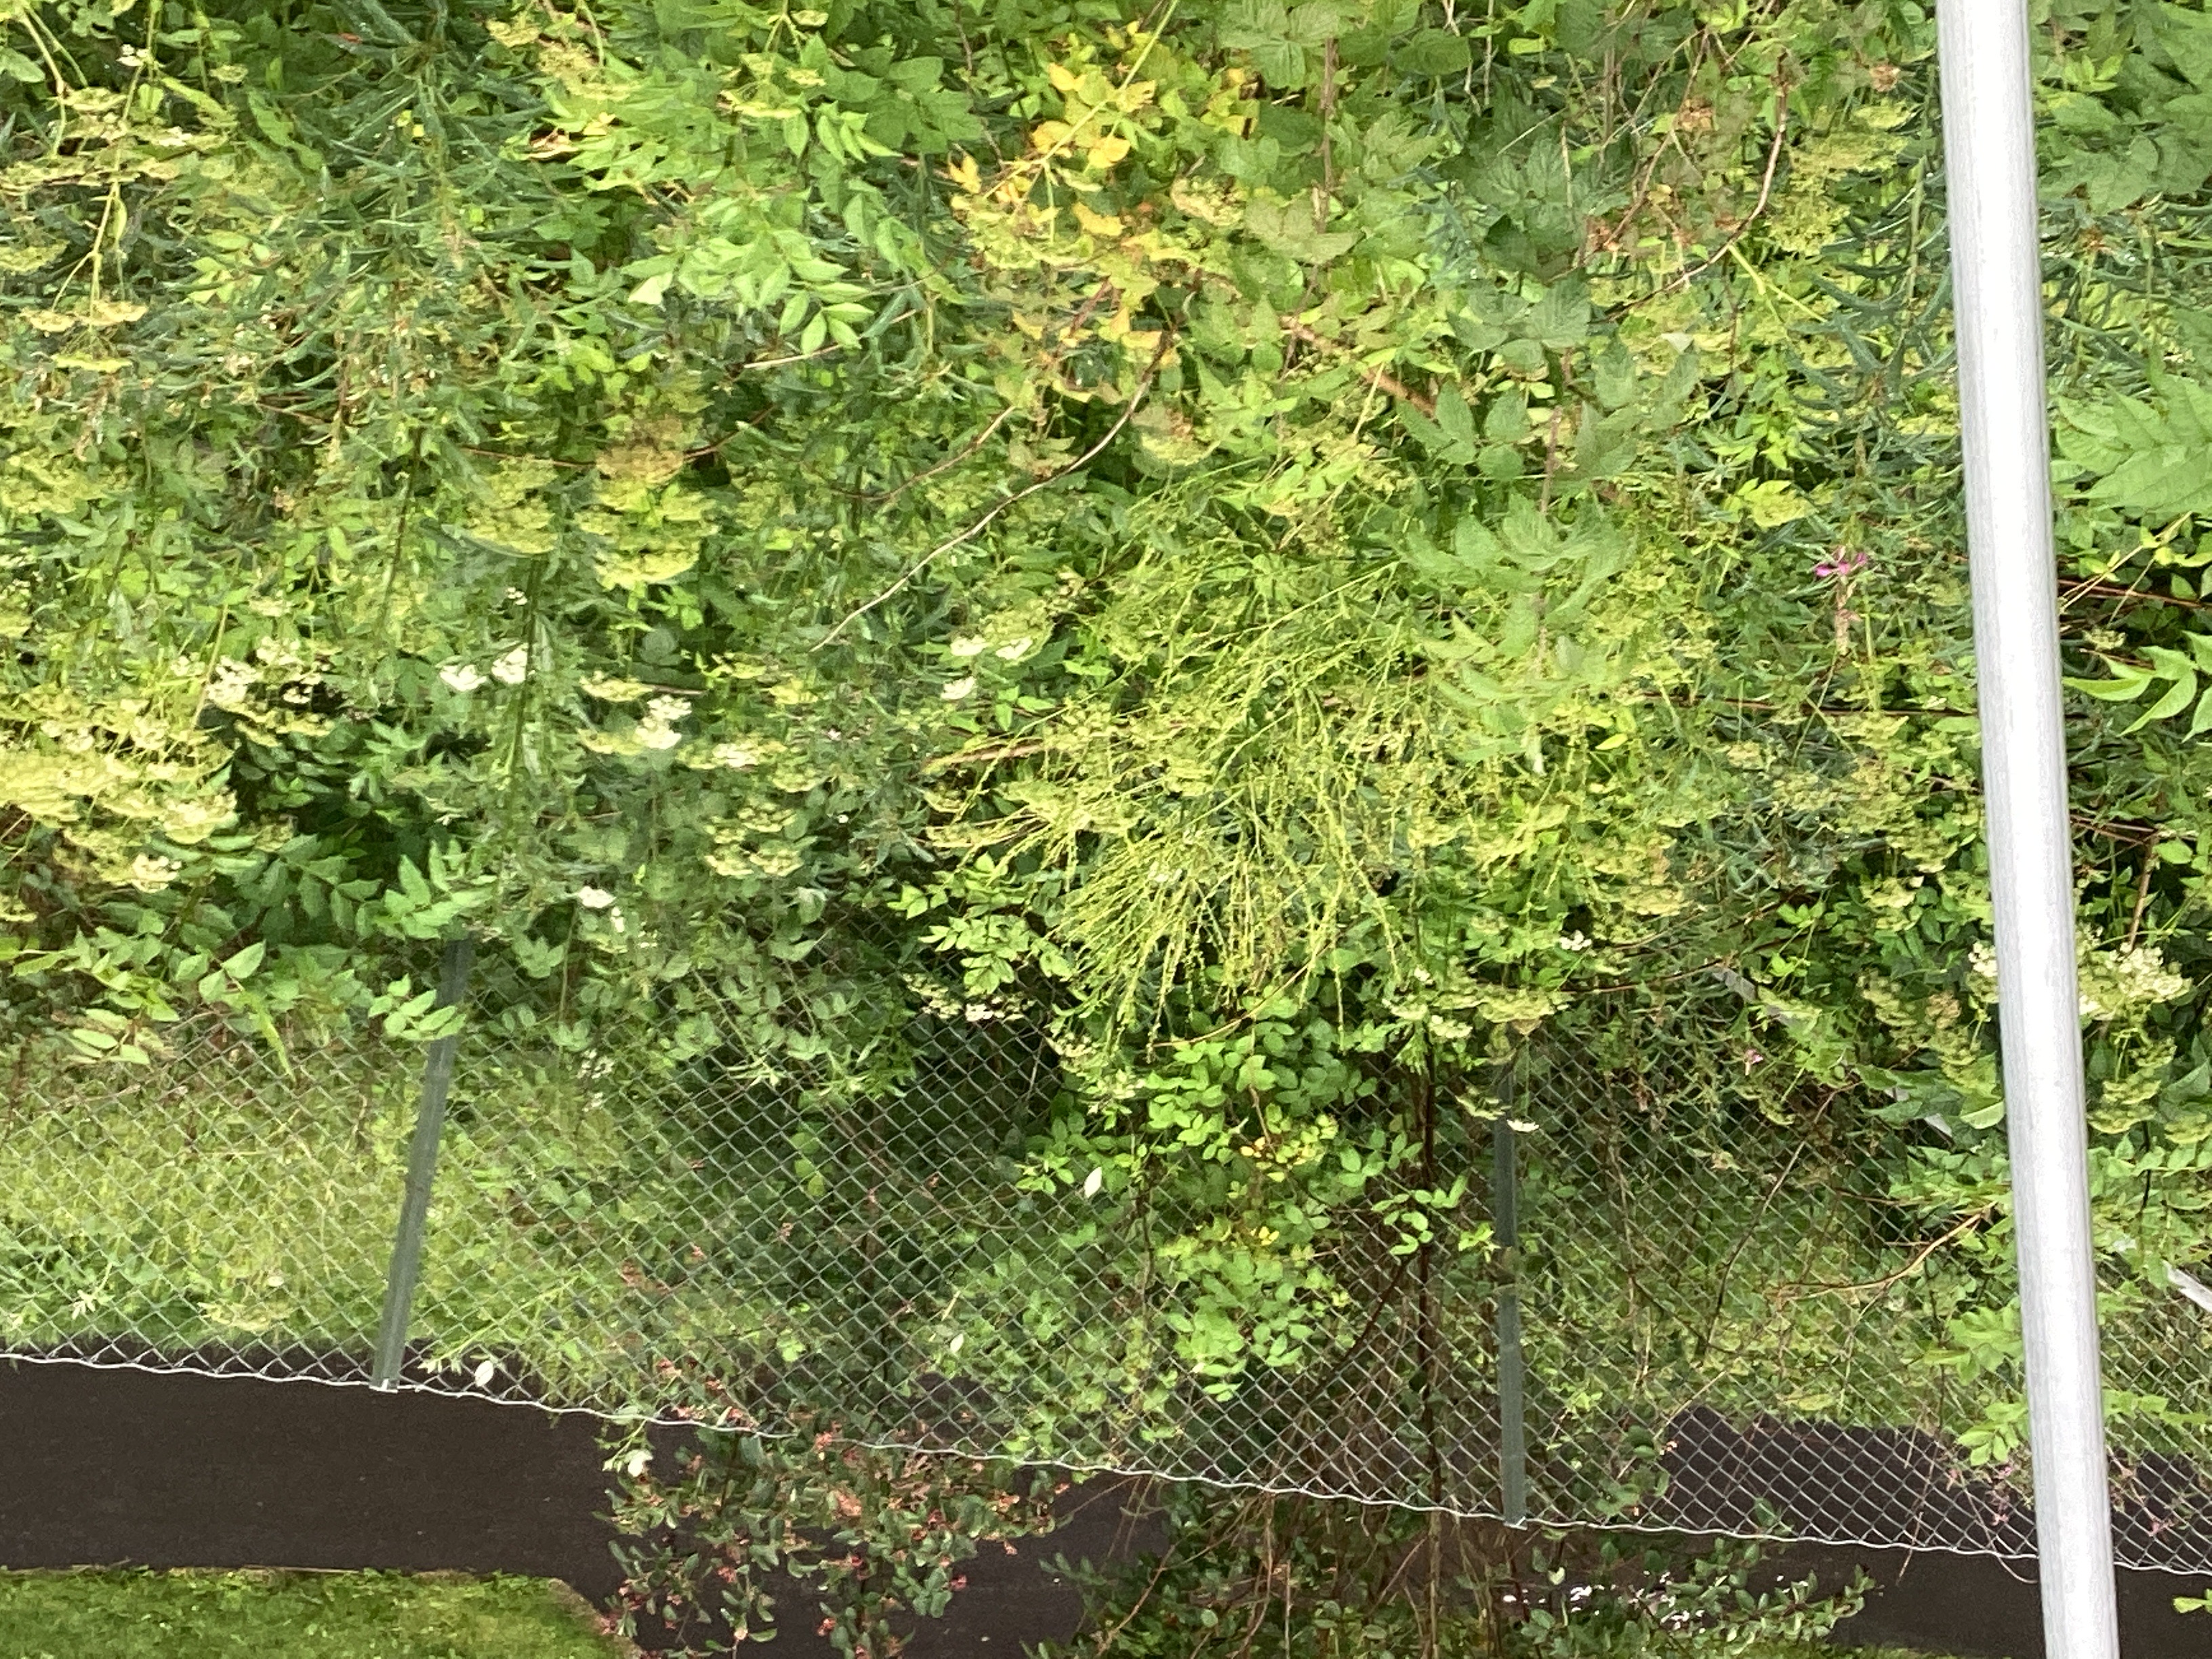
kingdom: Plantae
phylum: Tracheophyta
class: Magnoliopsida
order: Brassicales
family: Brassicaceae
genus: Bunias
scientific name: Bunias orientalis
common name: russekål
